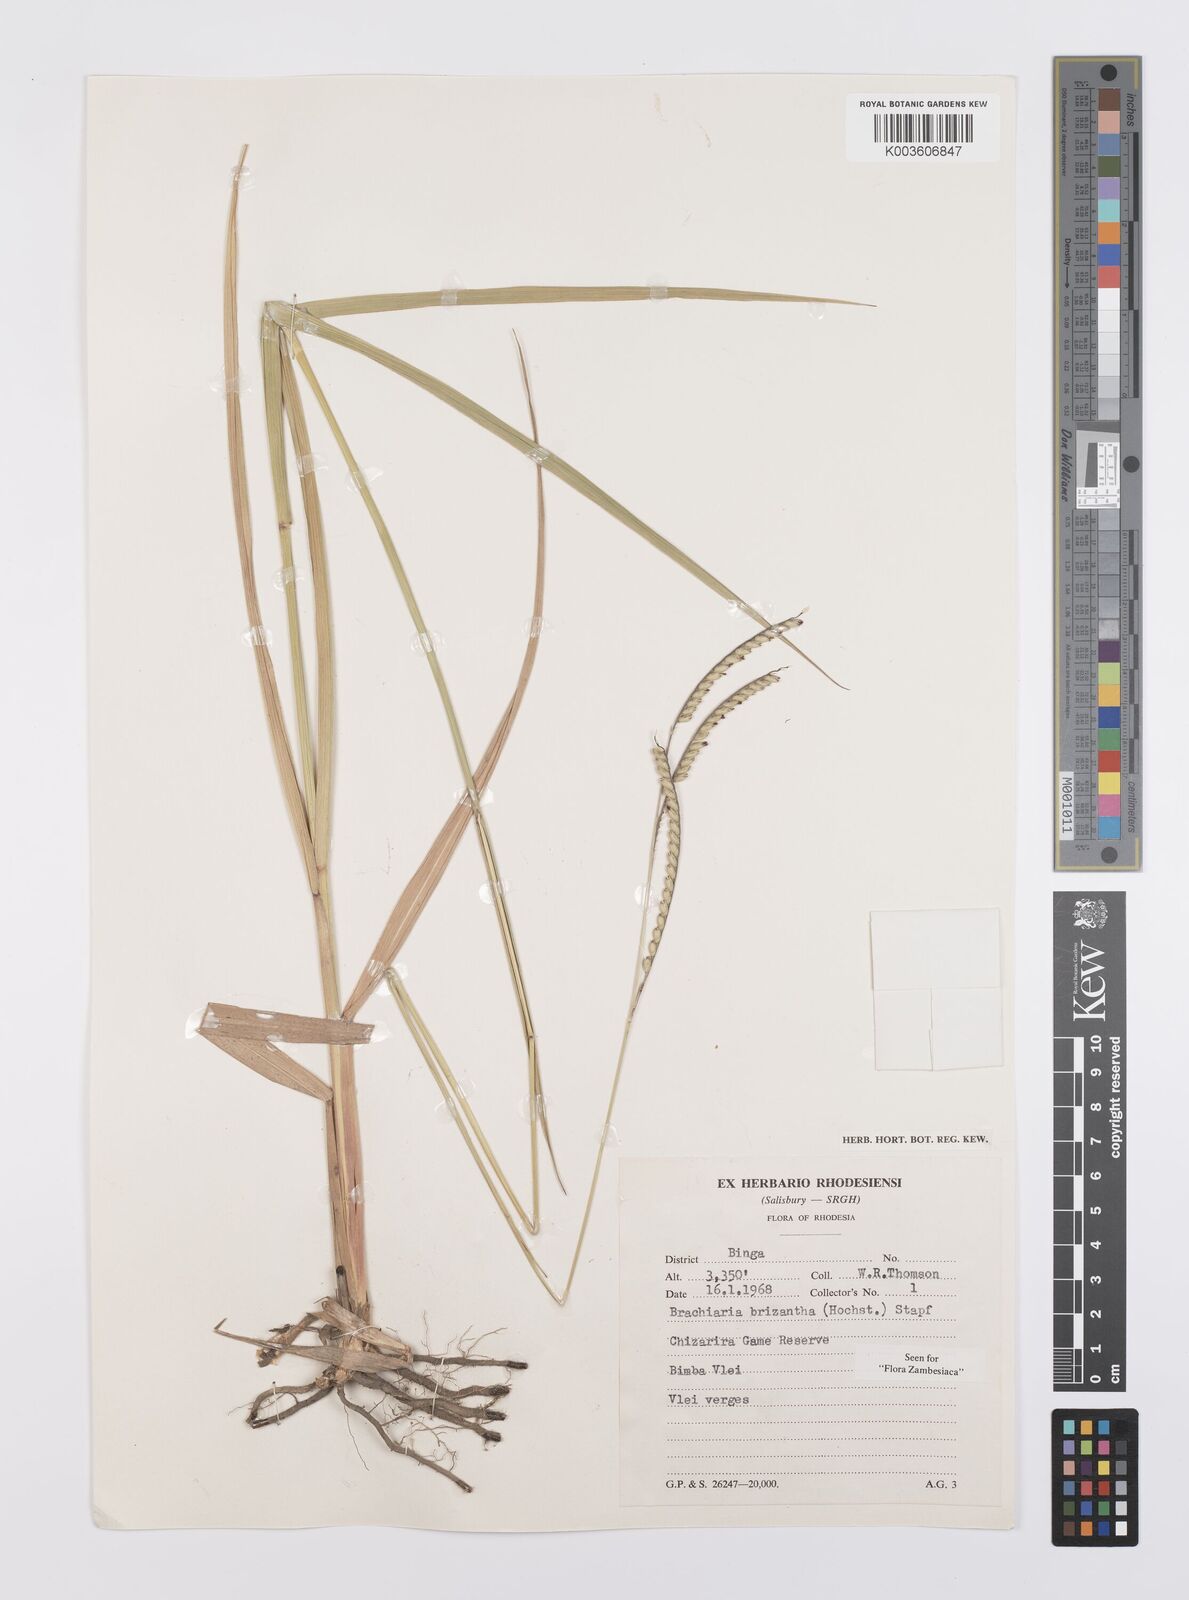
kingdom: Plantae
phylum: Tracheophyta
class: Liliopsida
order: Poales
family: Poaceae
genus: Urochloa
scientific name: Urochloa brizantha
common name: Palisade signalgrass
